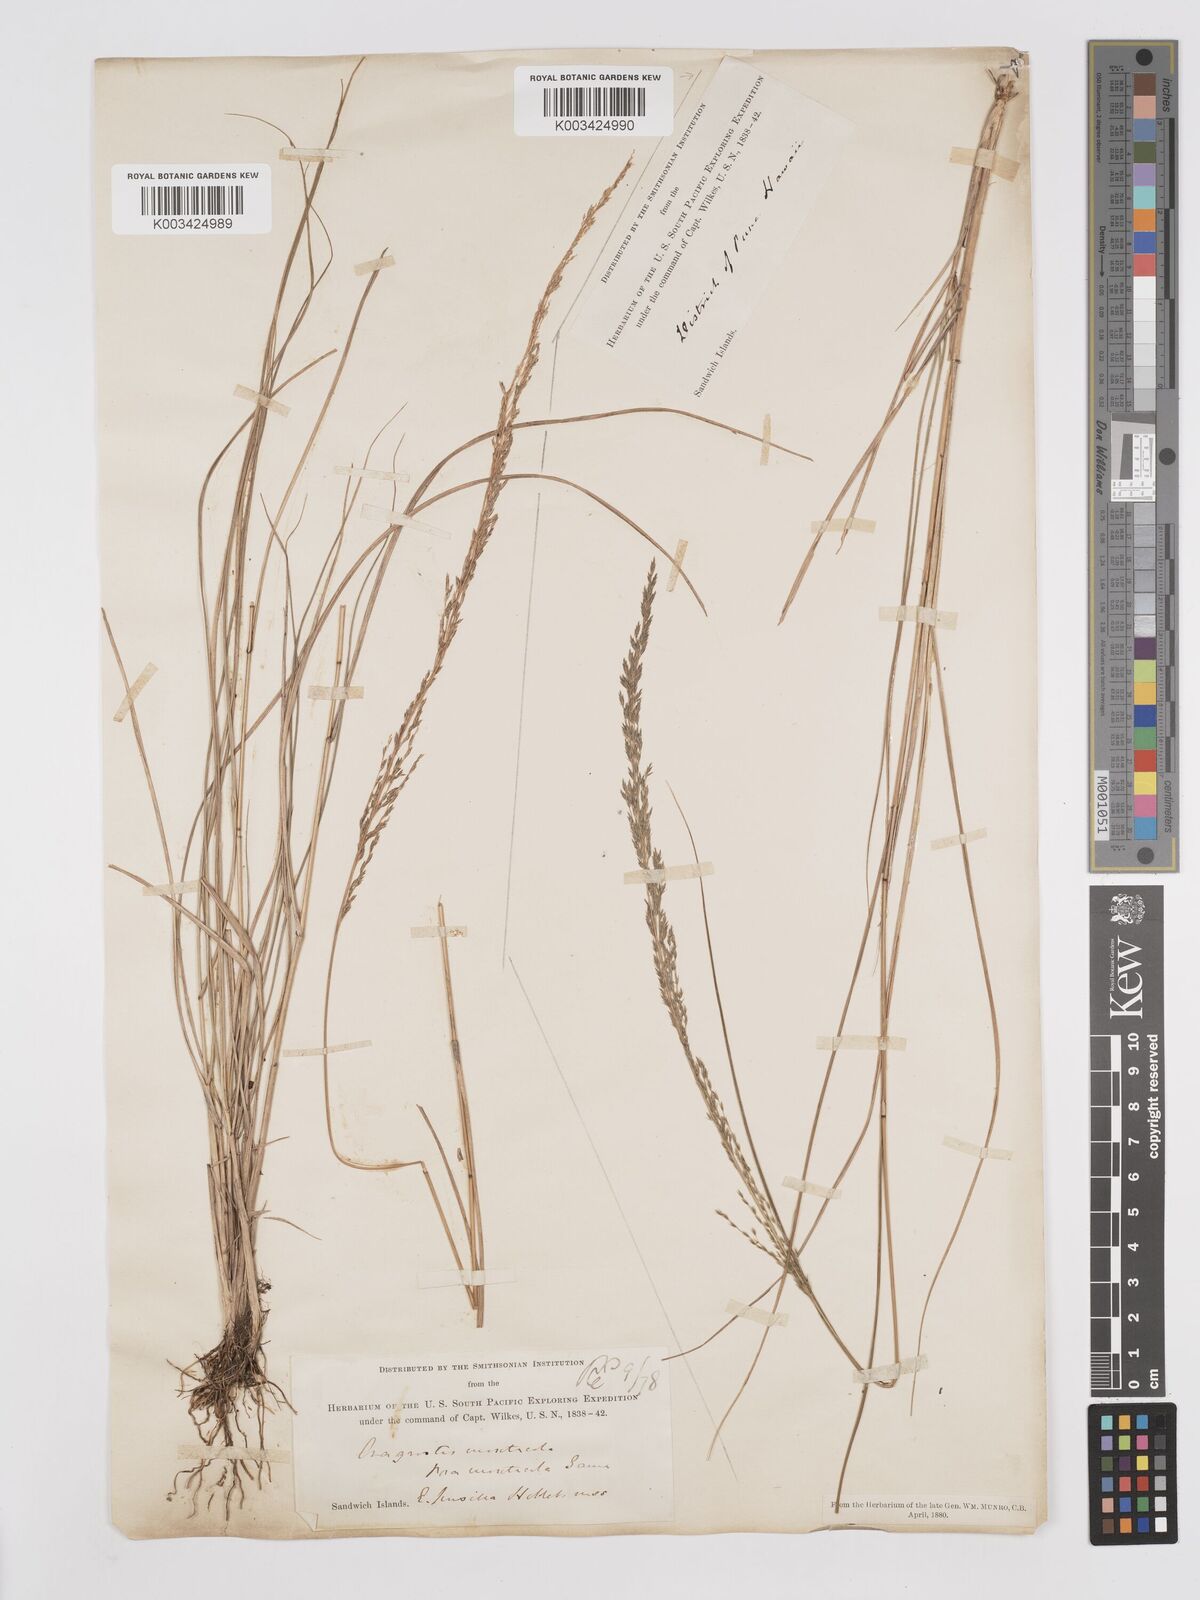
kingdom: Plantae
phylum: Tracheophyta
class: Liliopsida
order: Poales
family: Poaceae
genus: Eragrostis
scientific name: Eragrostis leptophylla
